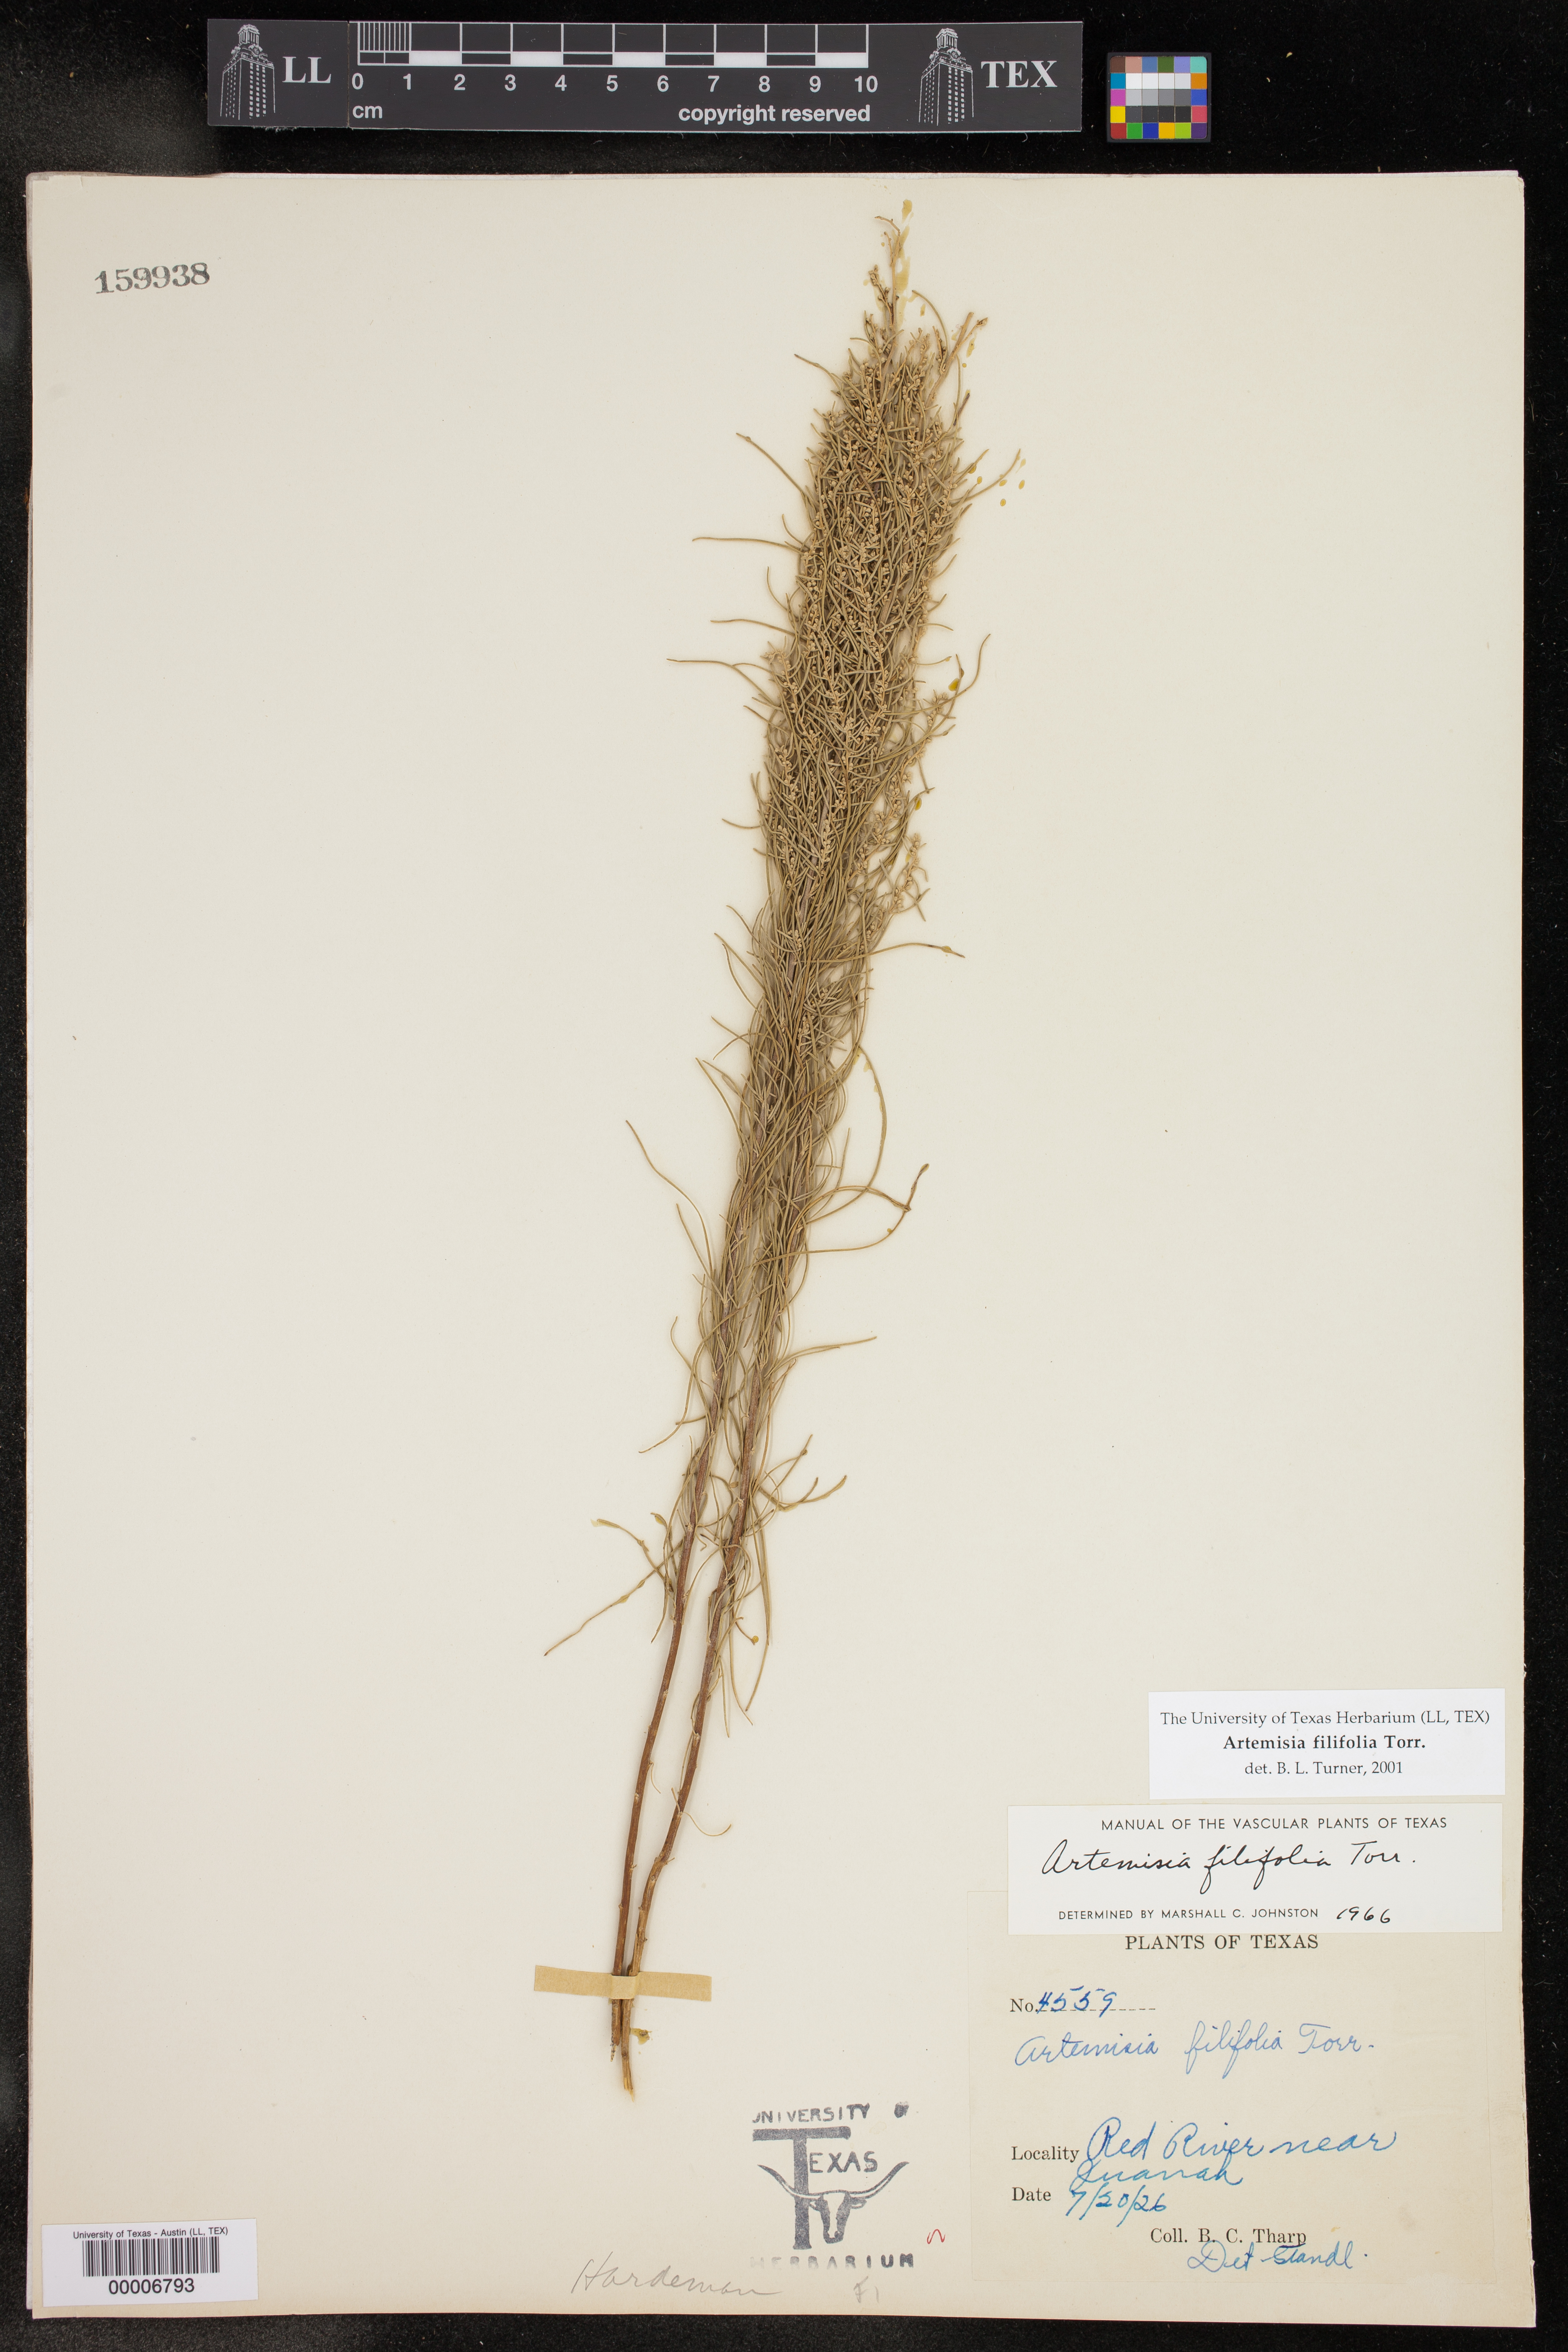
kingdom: Plantae
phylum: Tracheophyta
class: Magnoliopsida
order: Asterales
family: Asteraceae
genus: Artemisia
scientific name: Artemisia filifolia
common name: Sand-sage
